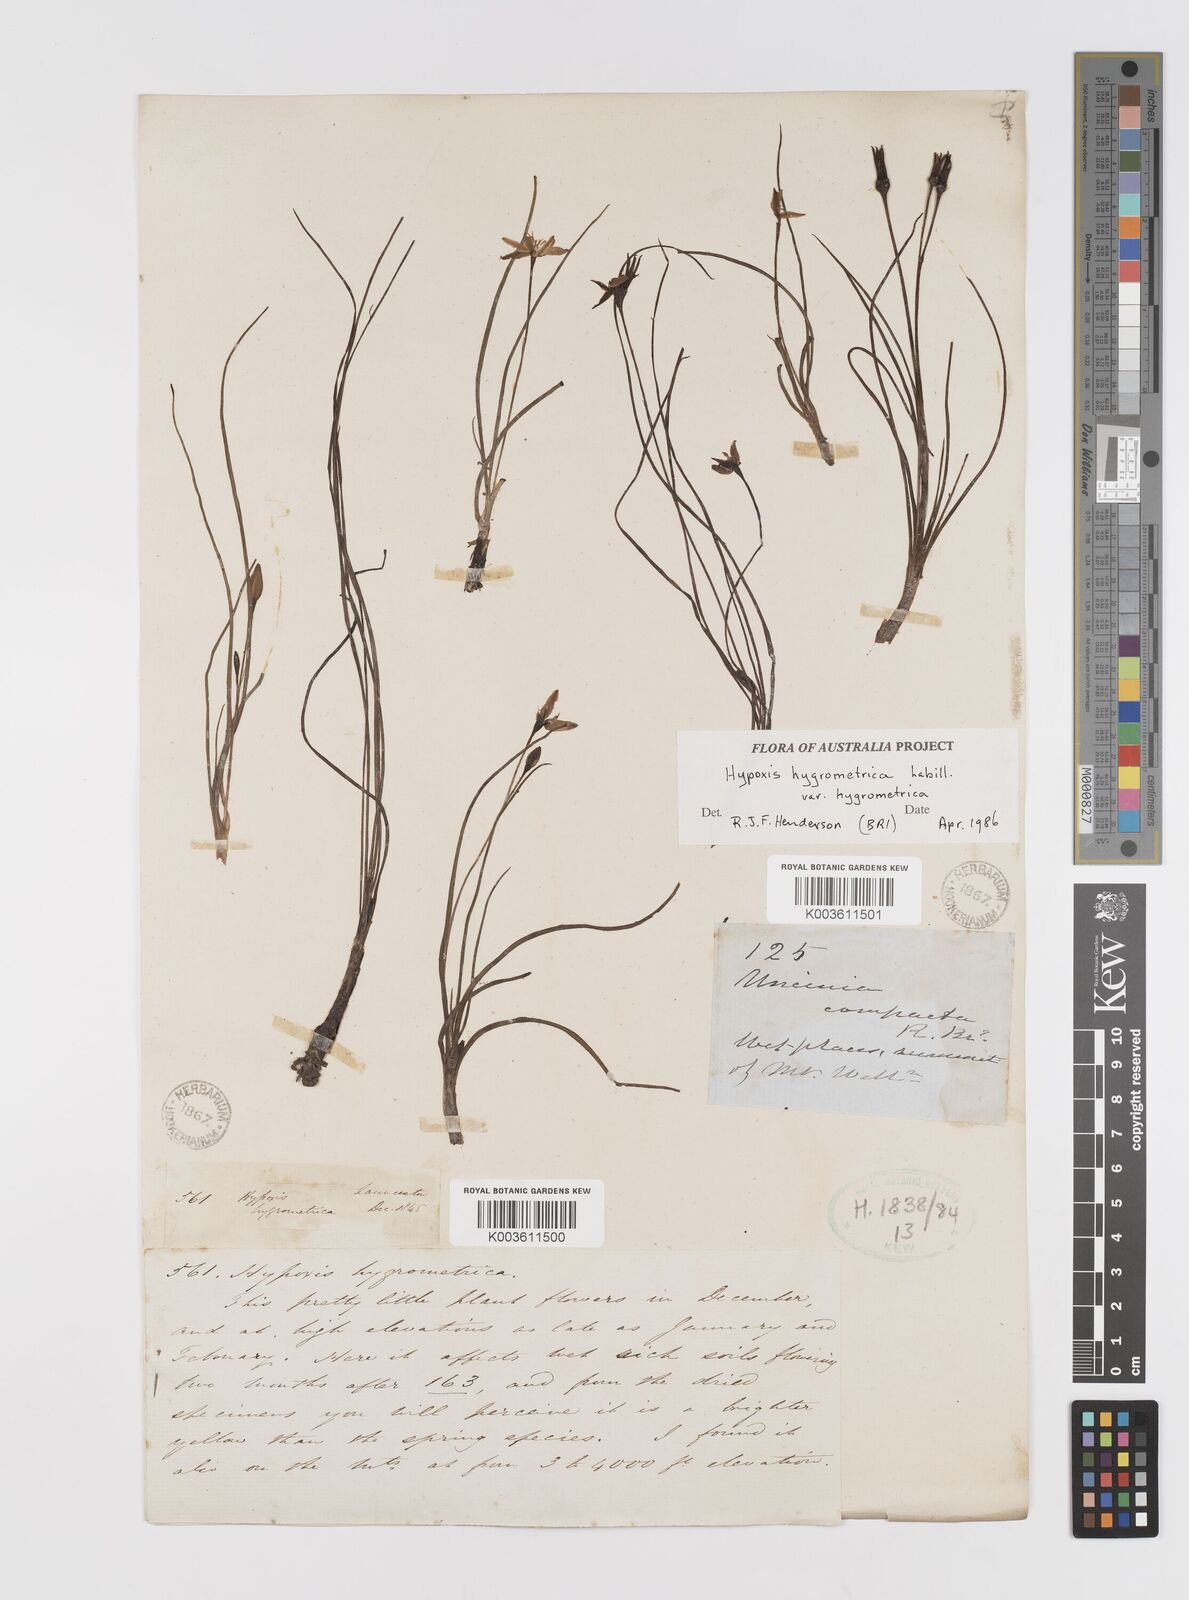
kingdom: Plantae
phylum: Tracheophyta
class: Liliopsida
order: Asparagales
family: Hypoxidaceae
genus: Hypoxis
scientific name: Hypoxis hygrometrica
